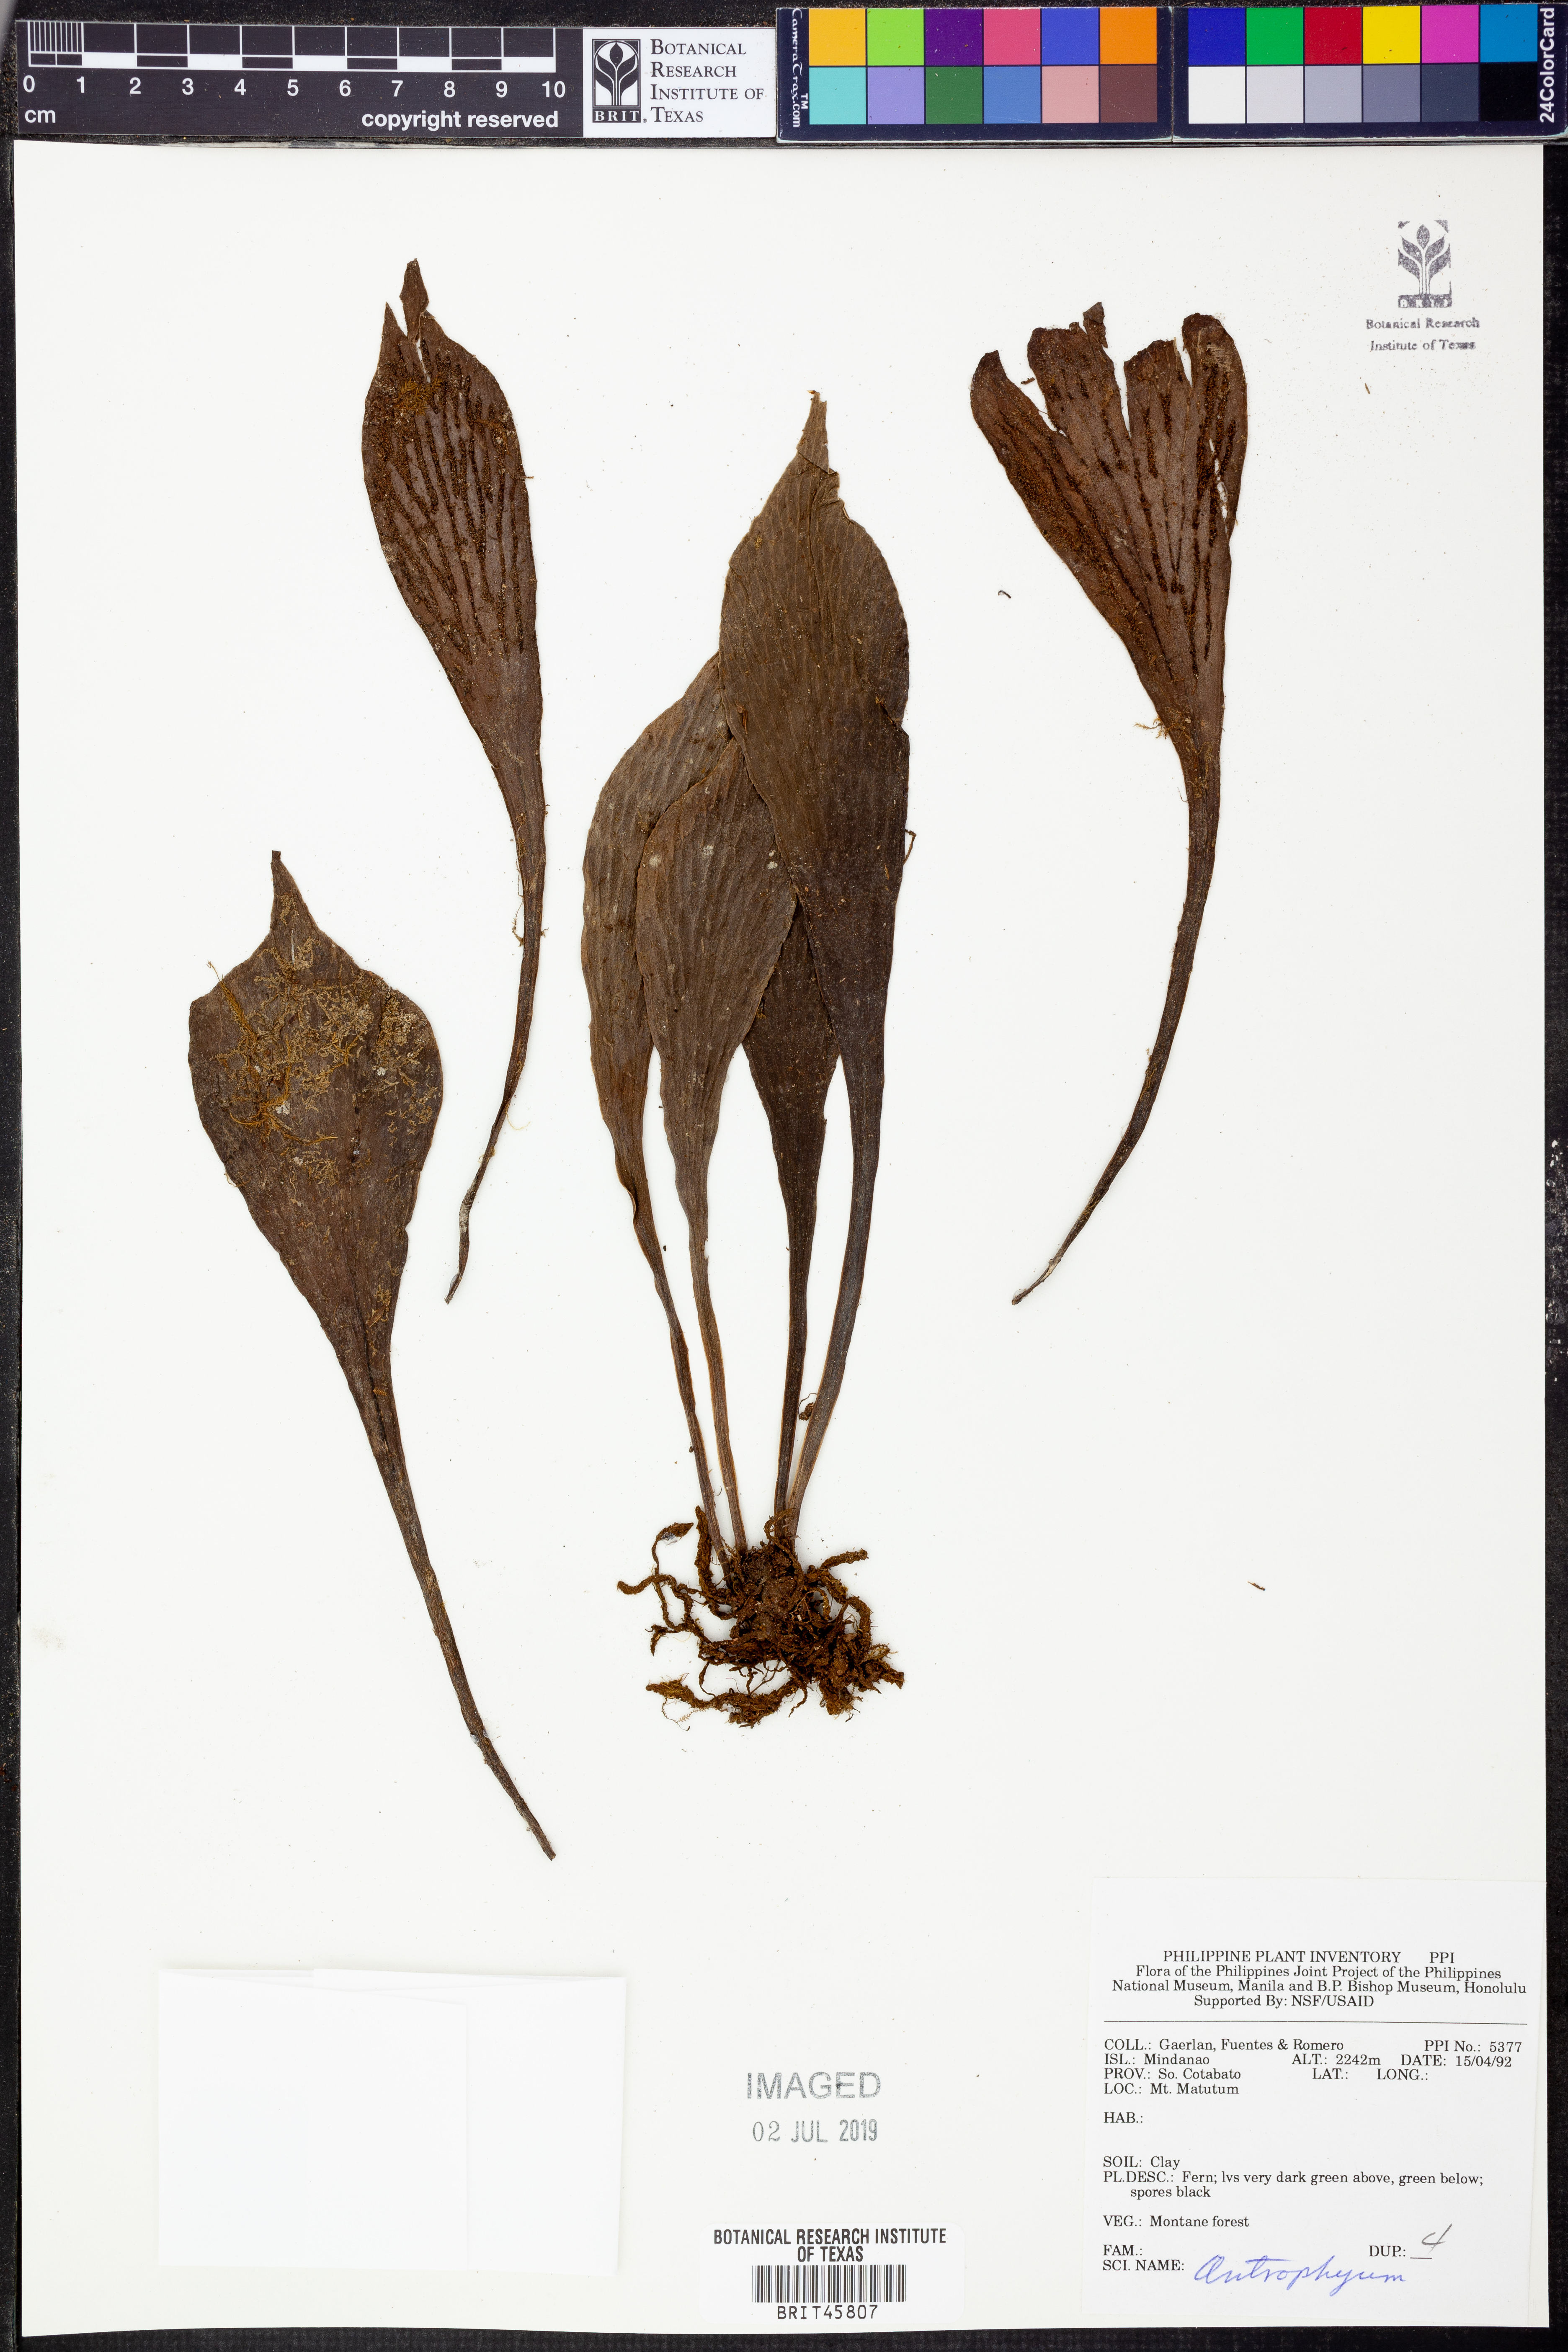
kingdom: Plantae
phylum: Tracheophyta
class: Polypodiopsida
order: Polypodiales
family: Pteridaceae
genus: Antrophyum
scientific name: Antrophyum
